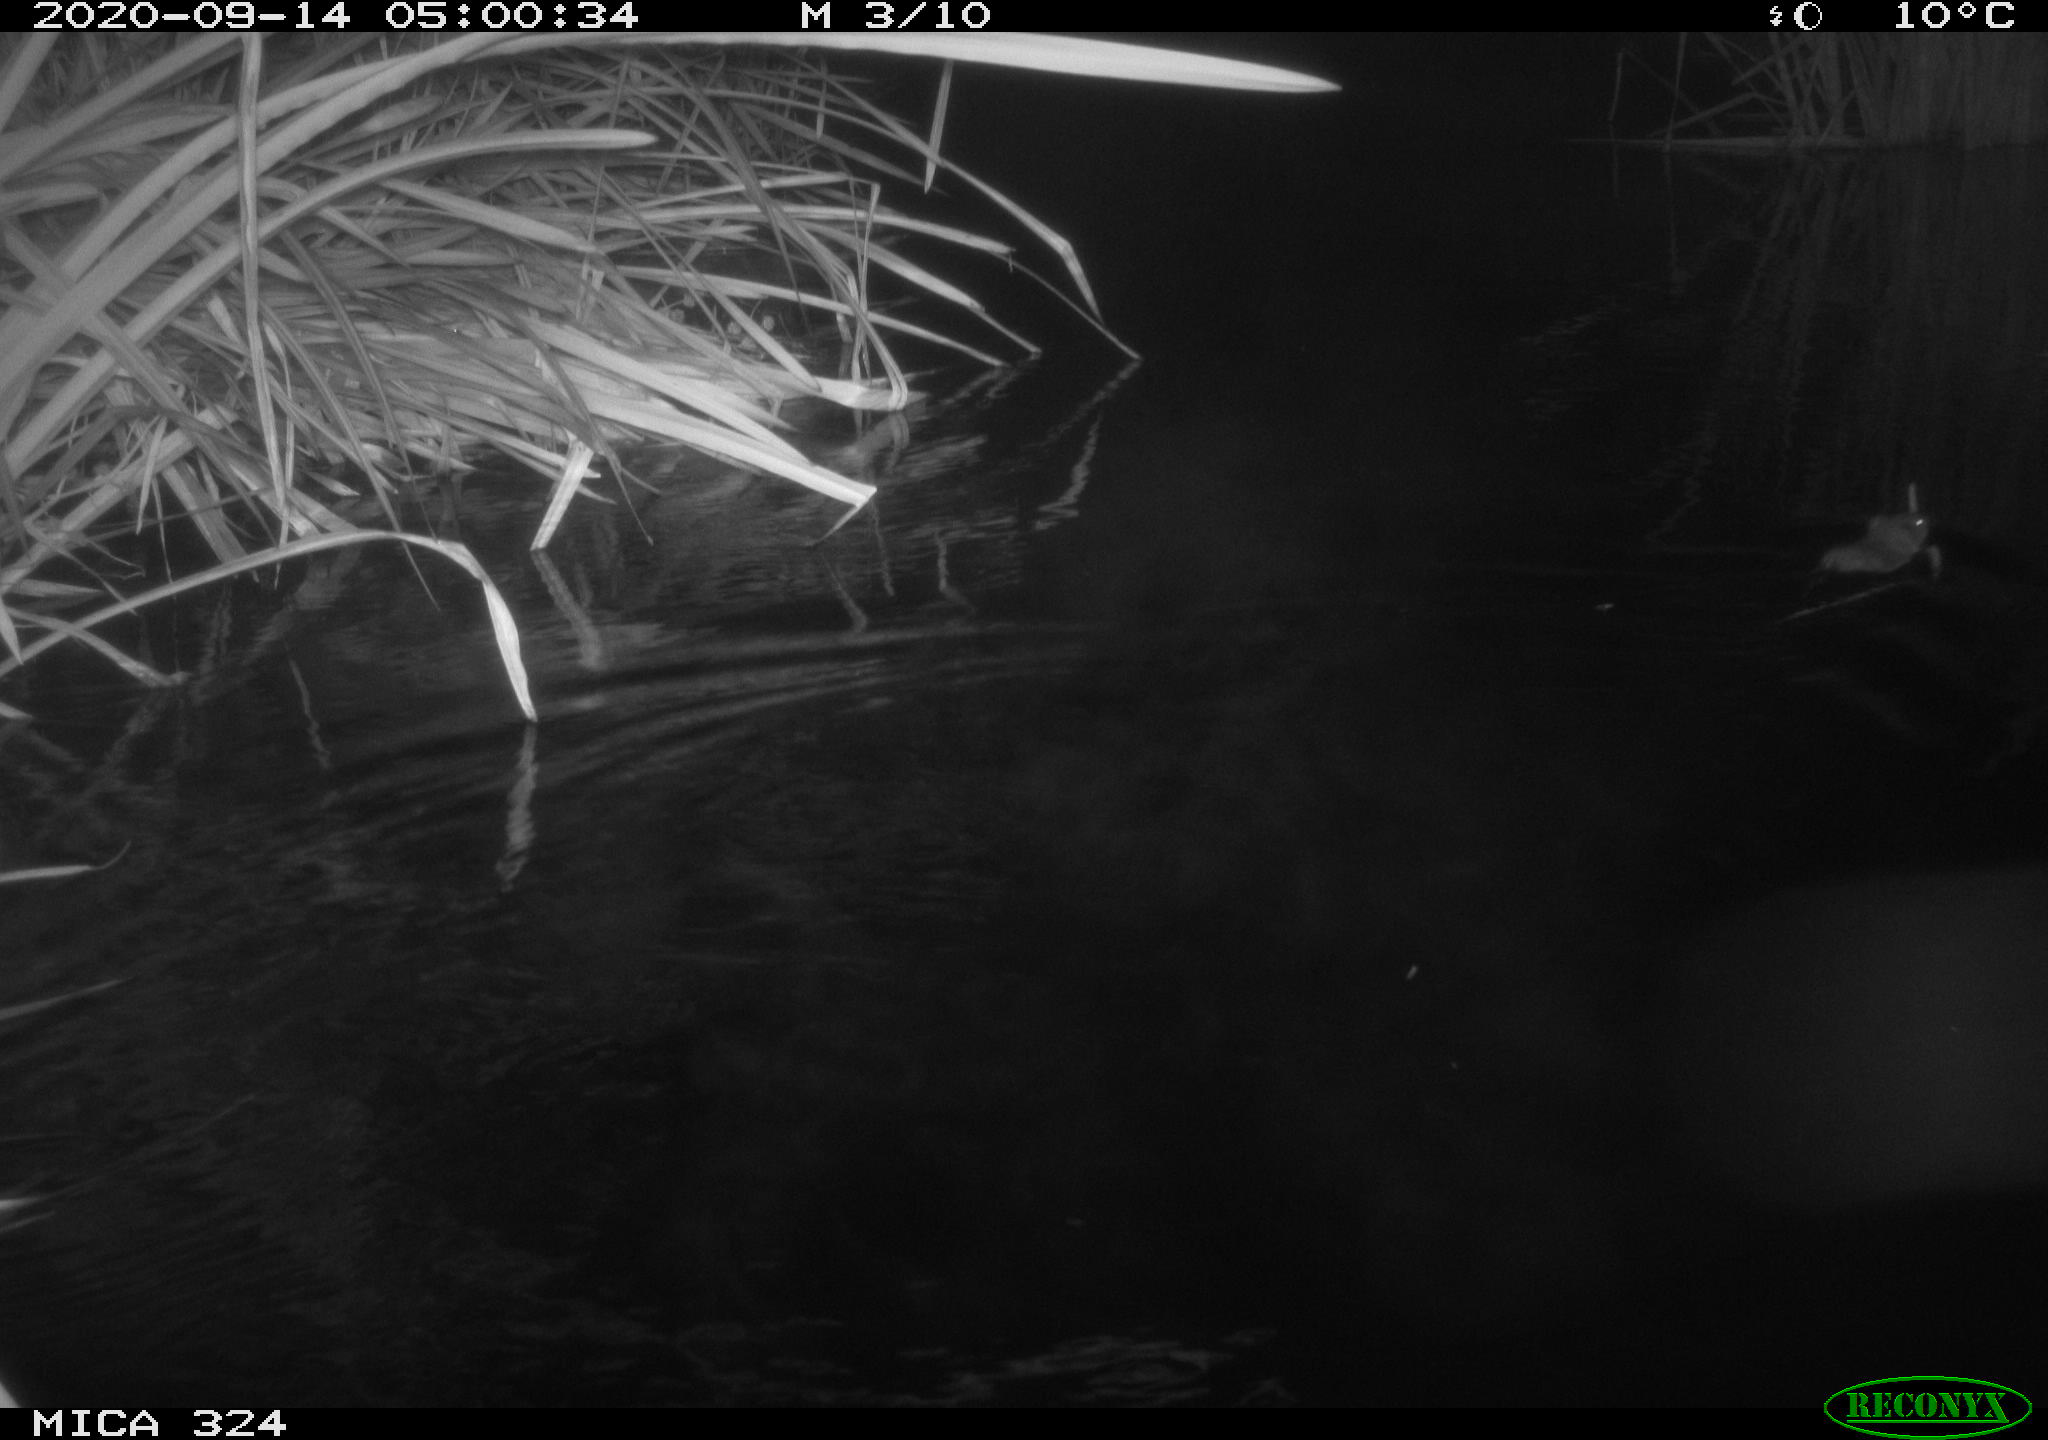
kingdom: Animalia
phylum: Chordata
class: Mammalia
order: Rodentia
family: Cricetidae
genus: Ondatra
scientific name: Ondatra zibethicus
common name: Muskrat
